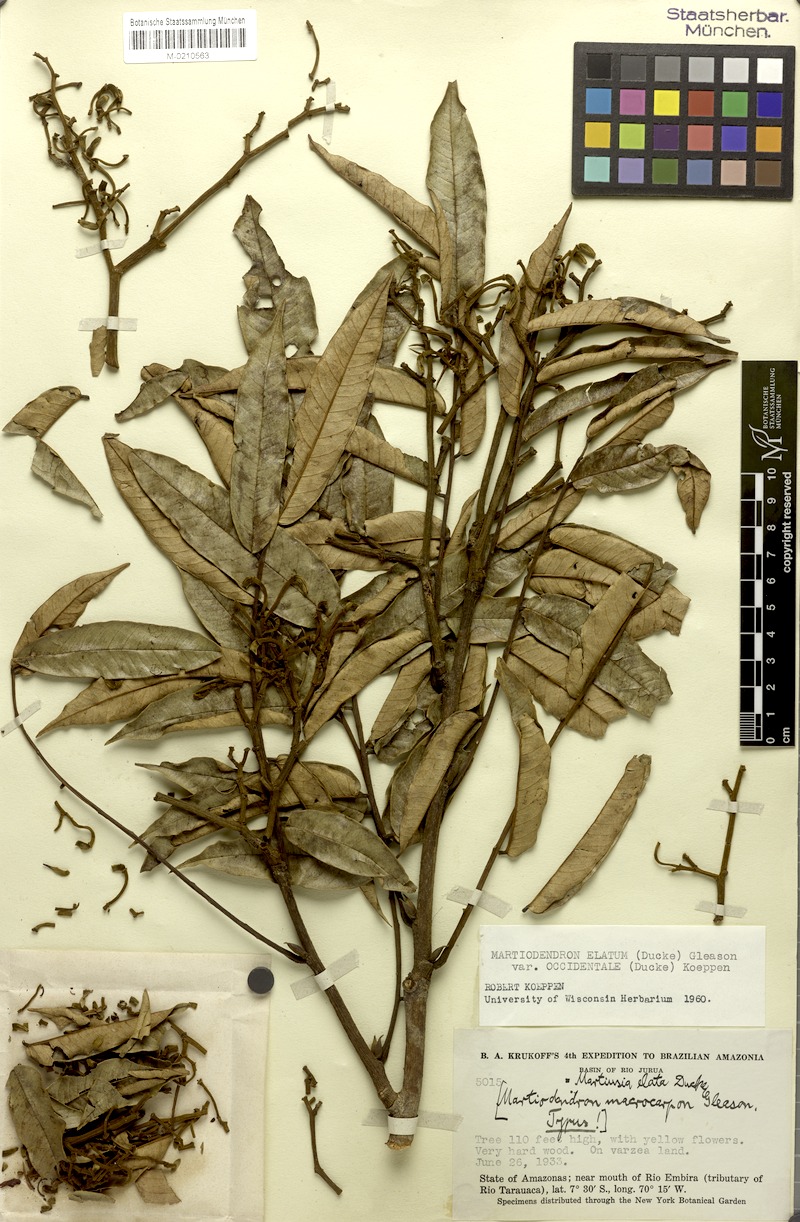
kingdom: Plantae
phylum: Tracheophyta
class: Magnoliopsida
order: Fabales
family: Fabaceae
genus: Martiodendron
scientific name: Martiodendron elatum
